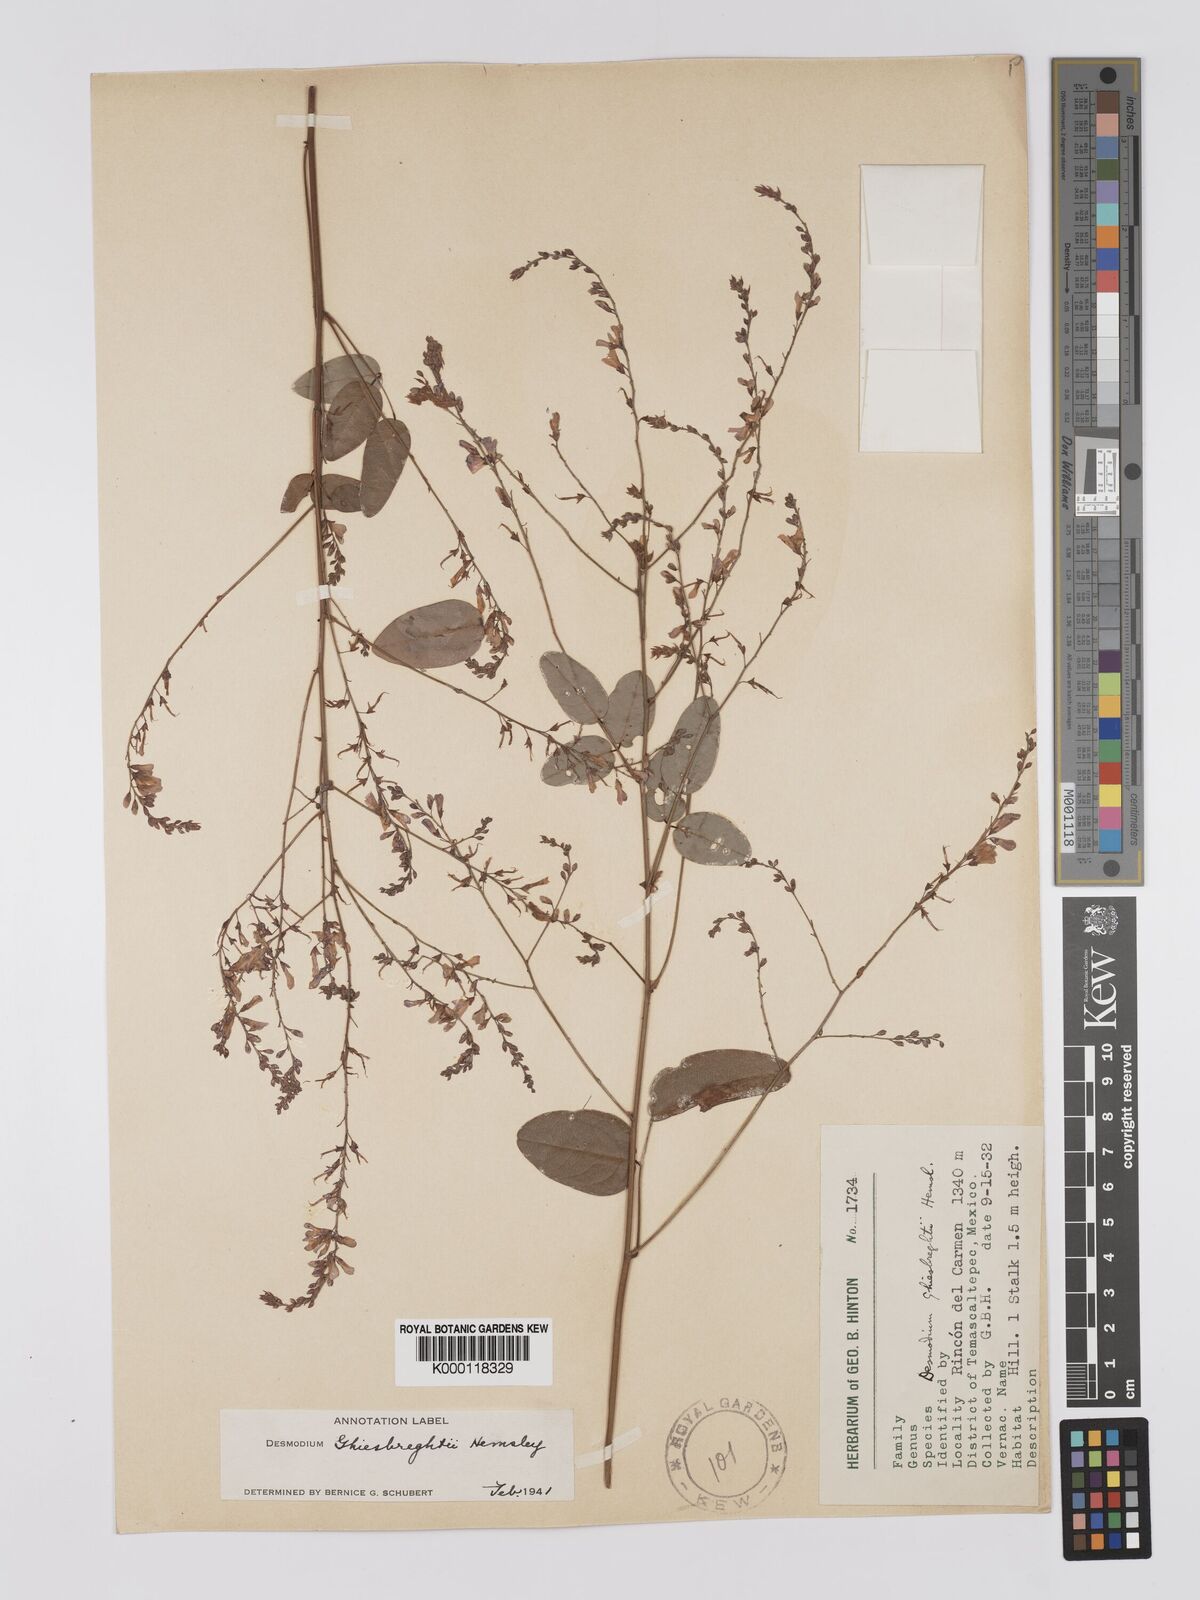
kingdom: Plantae
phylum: Tracheophyta
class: Magnoliopsida
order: Fabales
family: Fabaceae
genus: Desmodium
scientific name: Desmodium
